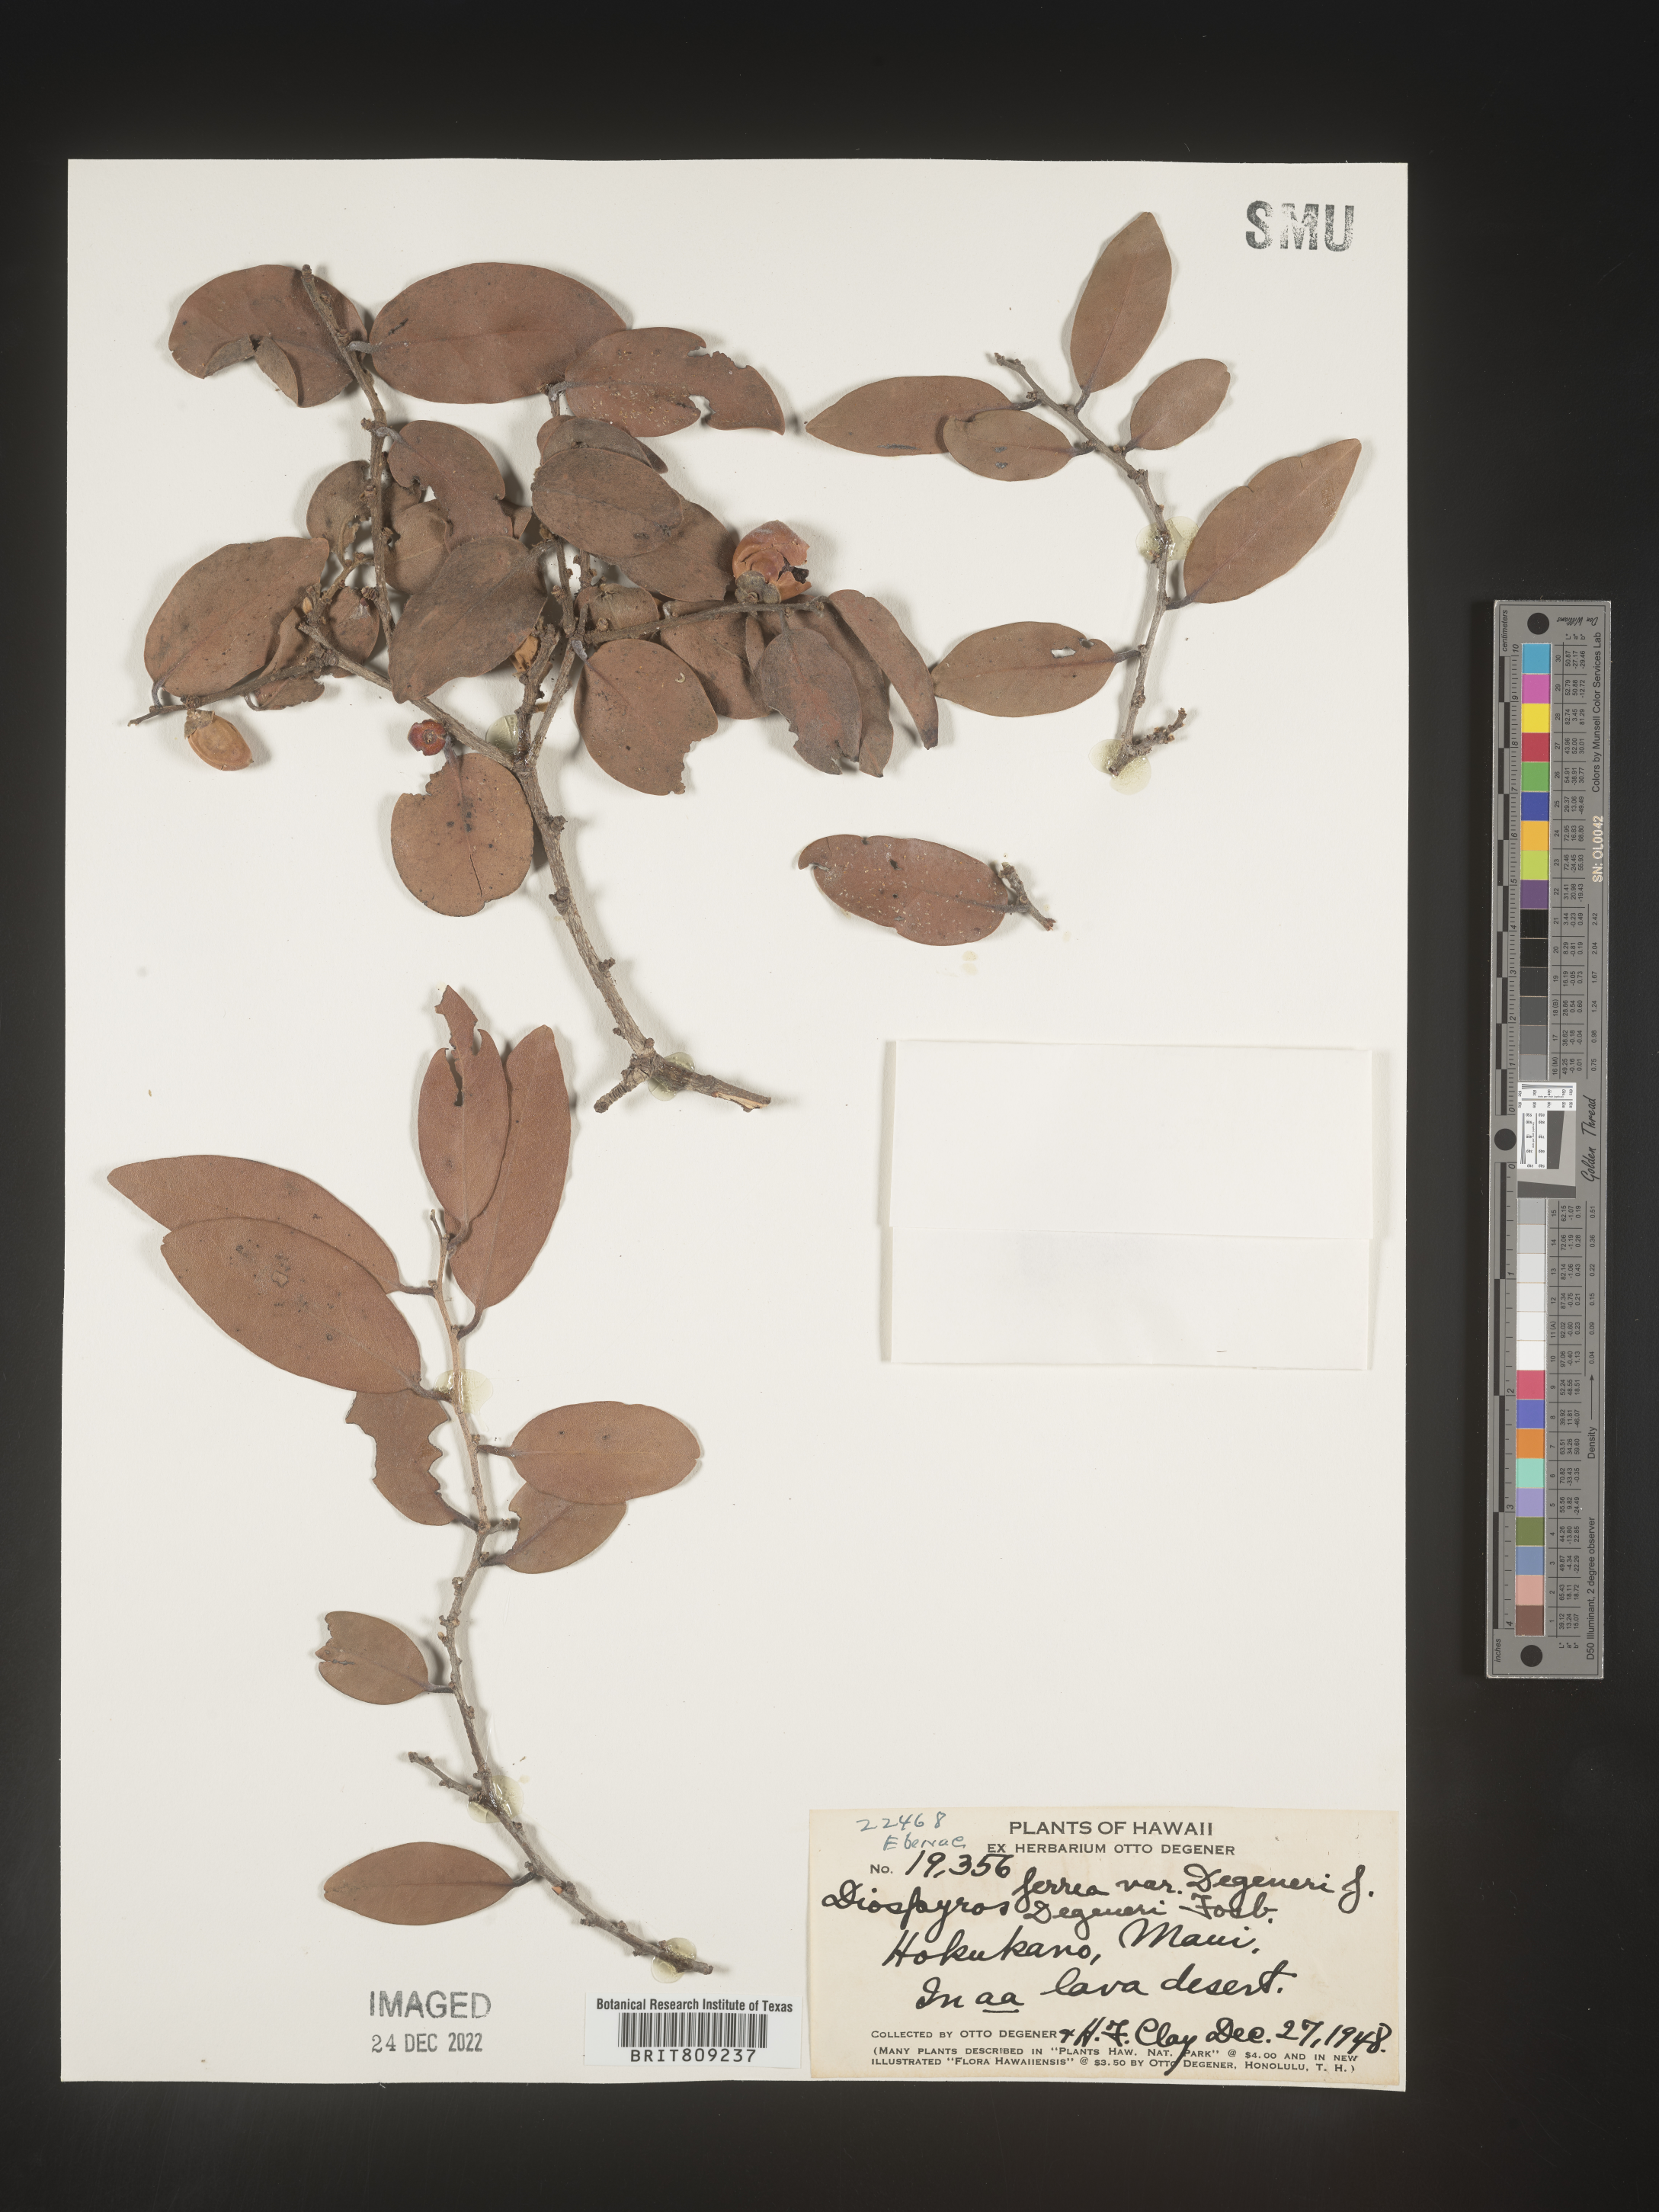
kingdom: Plantae
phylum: Tracheophyta
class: Magnoliopsida
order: Ericales
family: Ebenaceae
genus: Diospyros
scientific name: Diospyros
